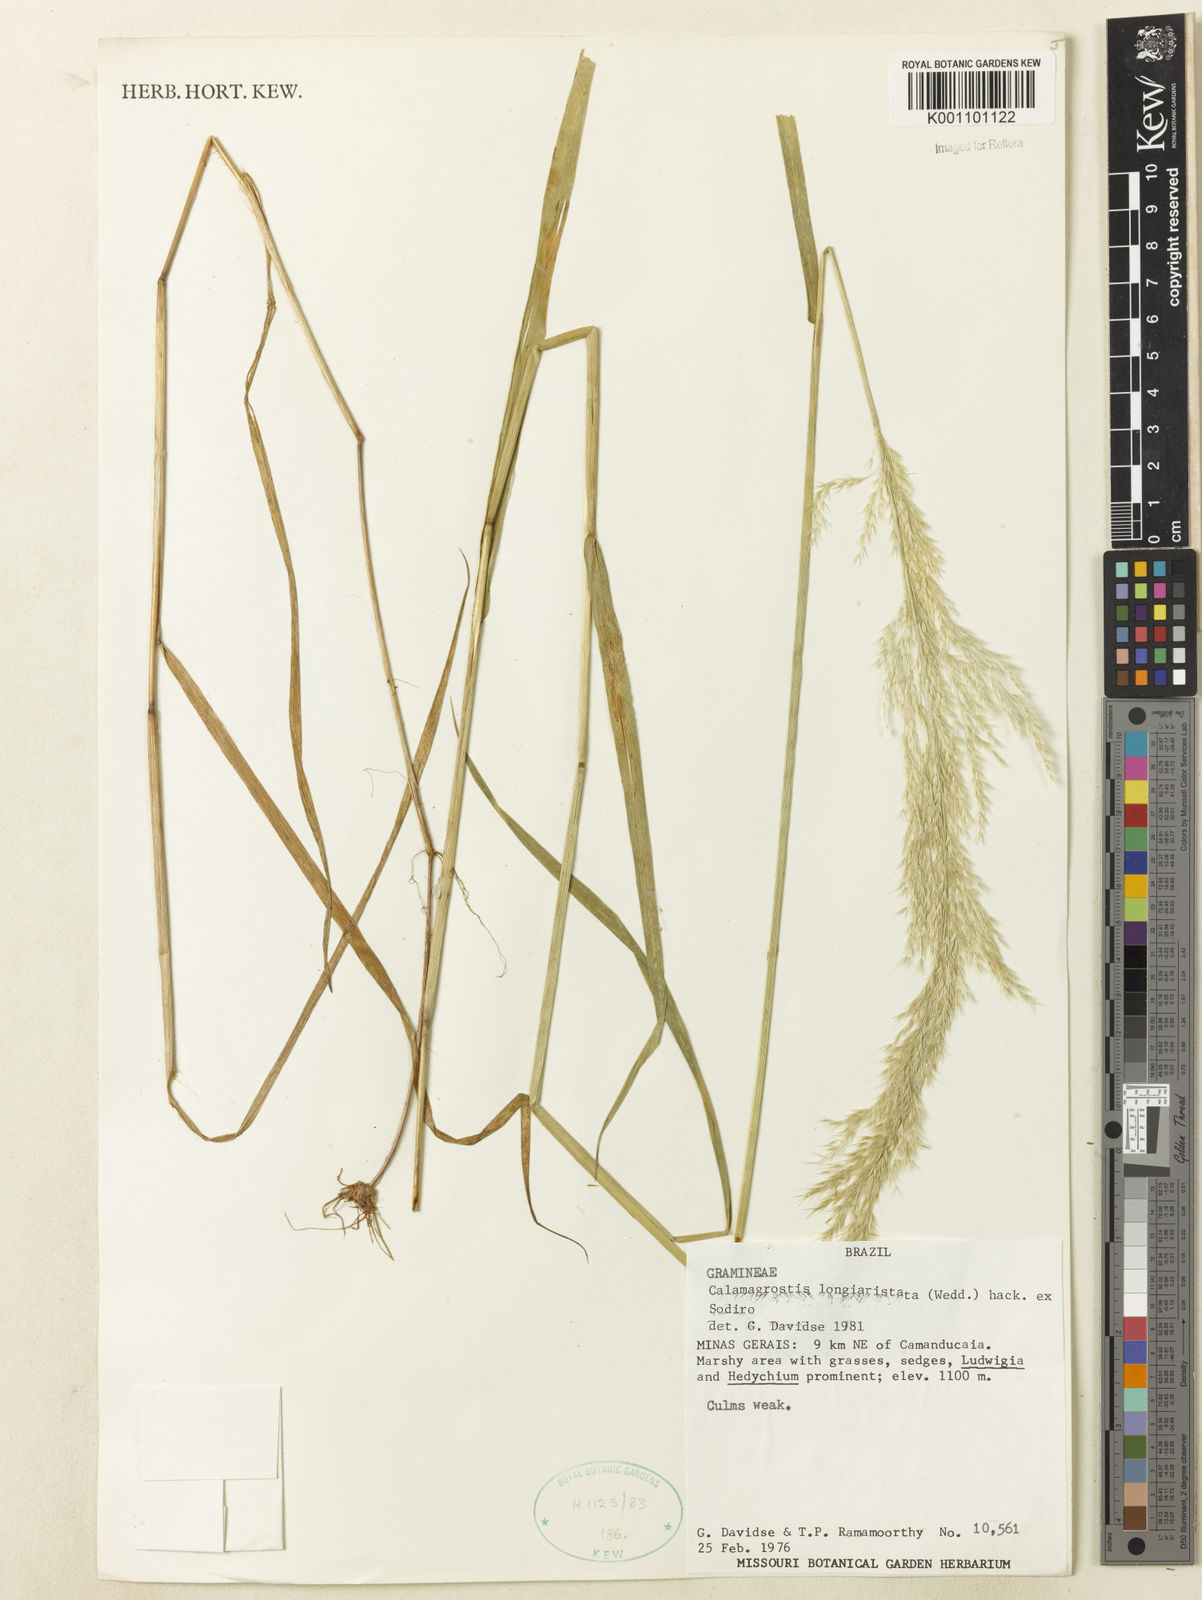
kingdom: Plantae
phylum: Tracheophyta
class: Liliopsida
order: Poales
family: Poaceae
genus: Cinnagrostis
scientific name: Cinnagrostis rupestris
